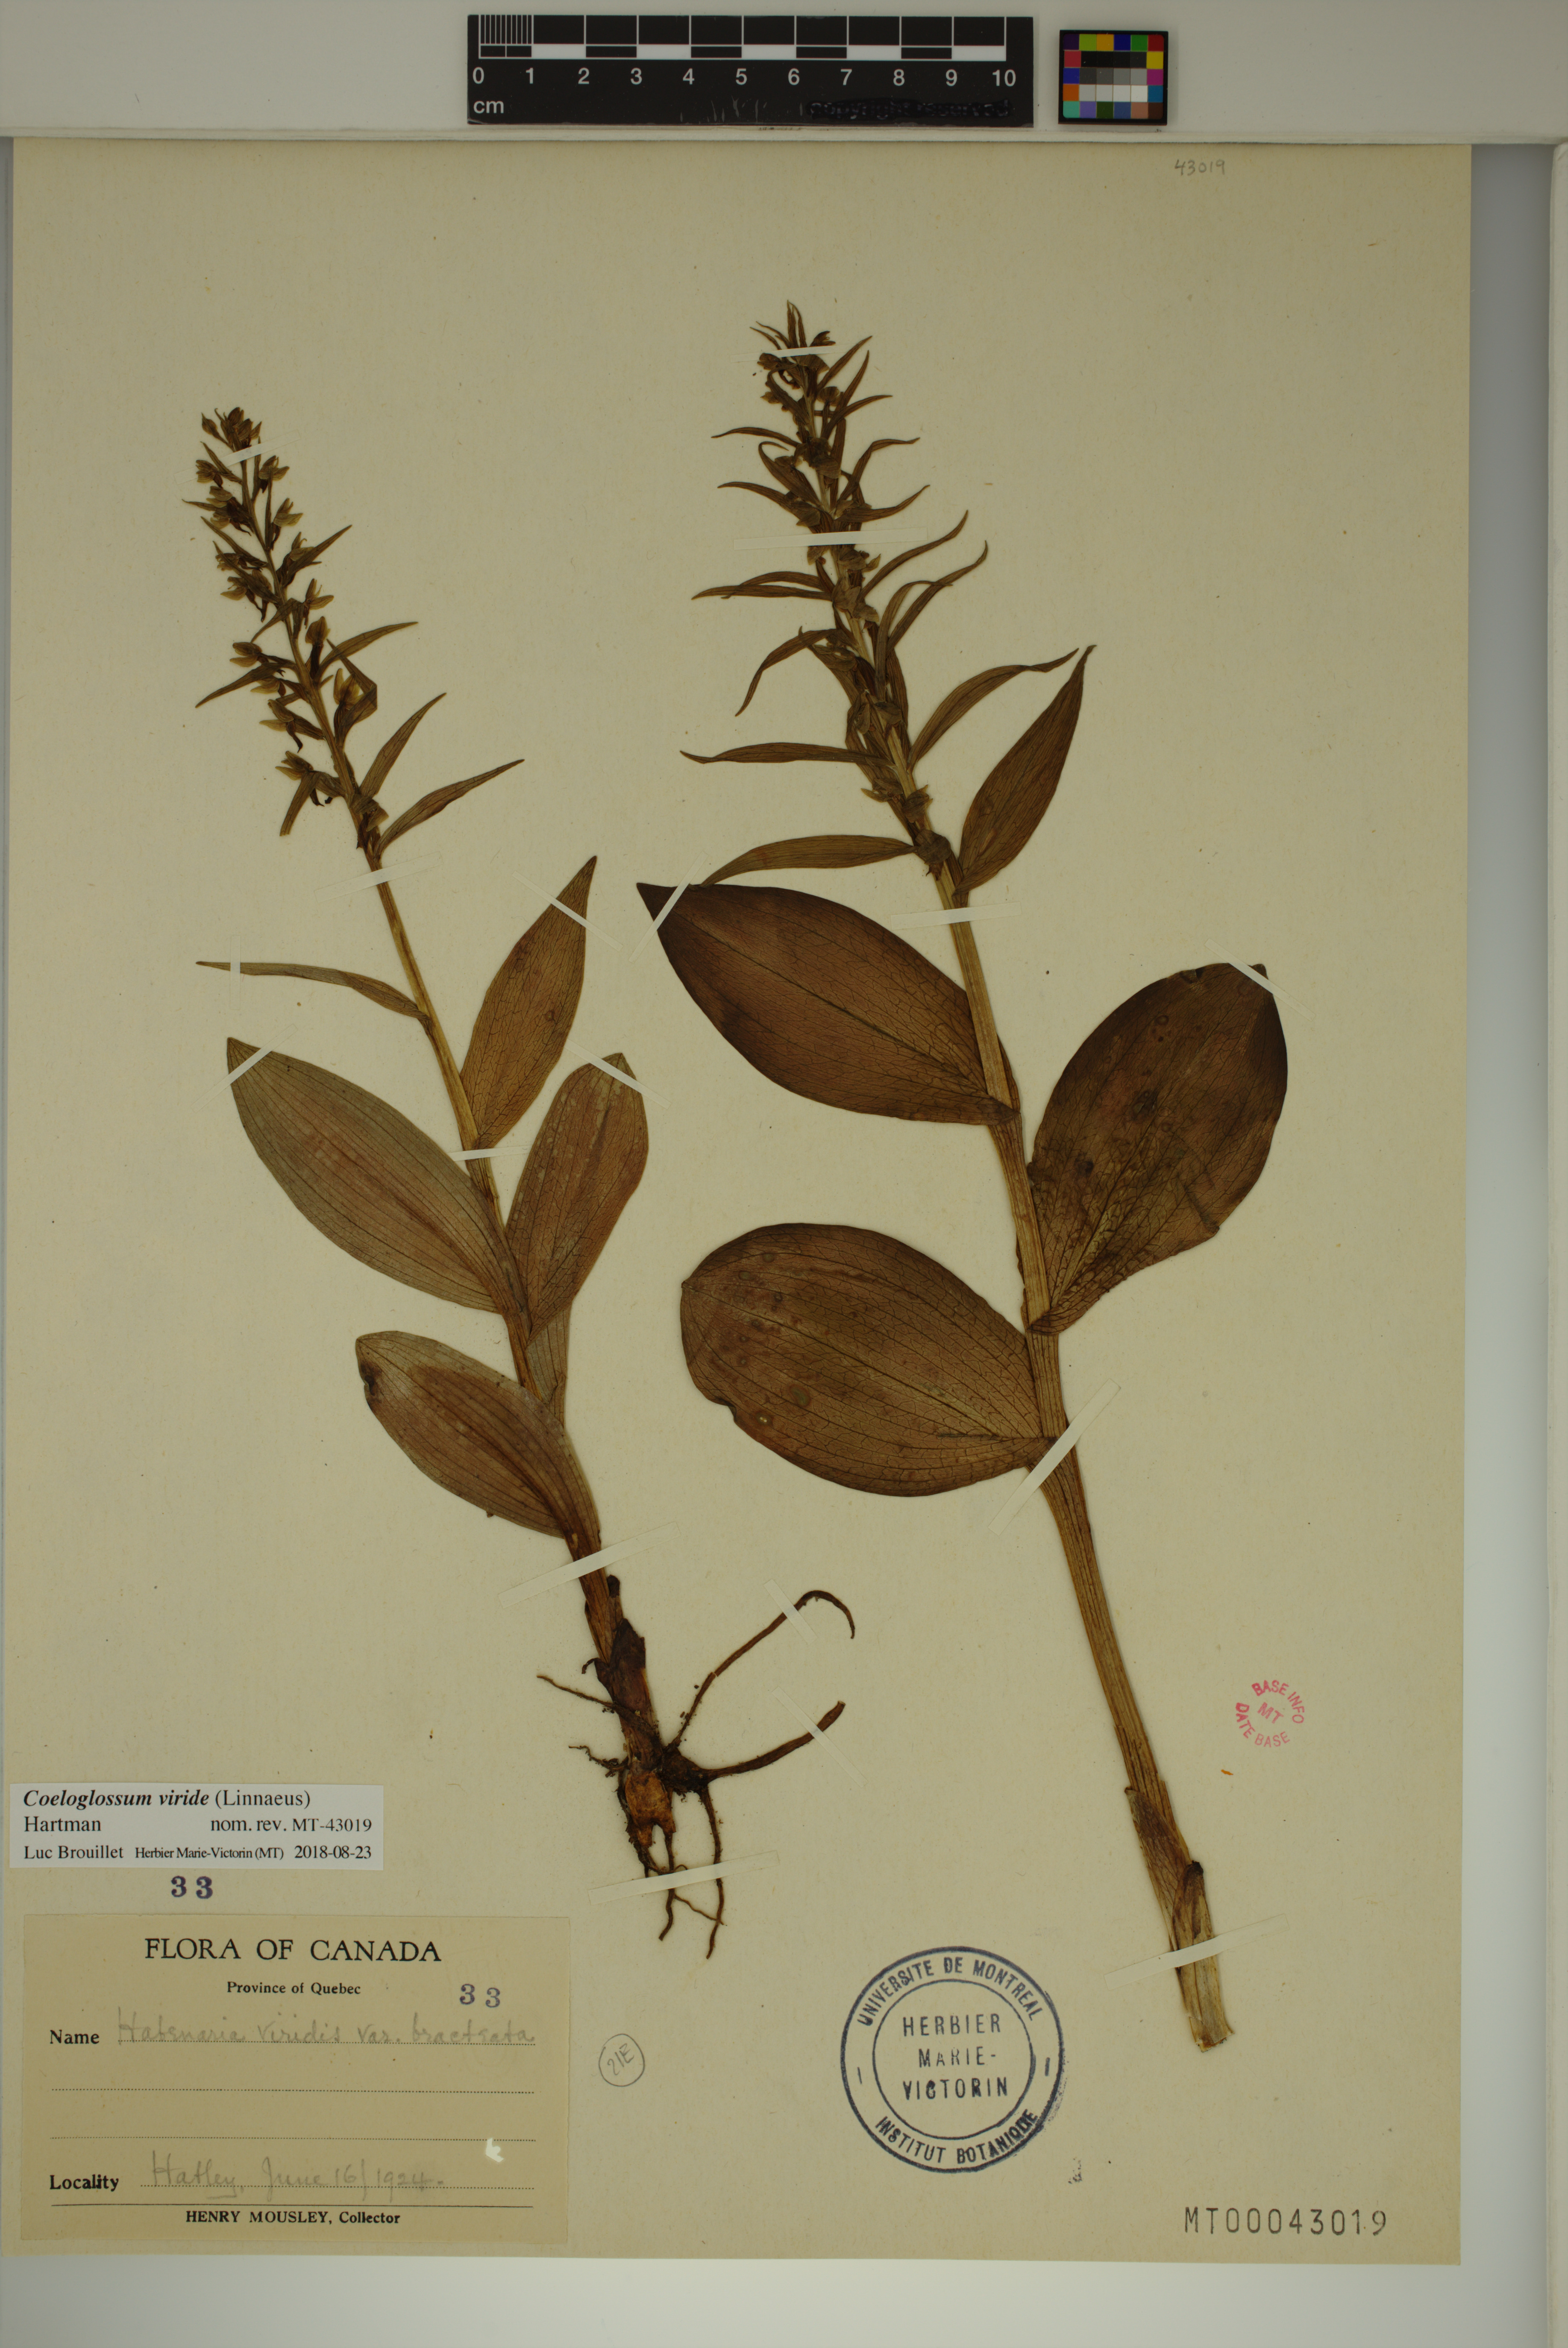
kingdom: Plantae
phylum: Tracheophyta
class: Liliopsida
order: Asparagales
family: Orchidaceae
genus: Dactylorhiza
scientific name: Dactylorhiza viridis
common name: Longbract frog orchid
